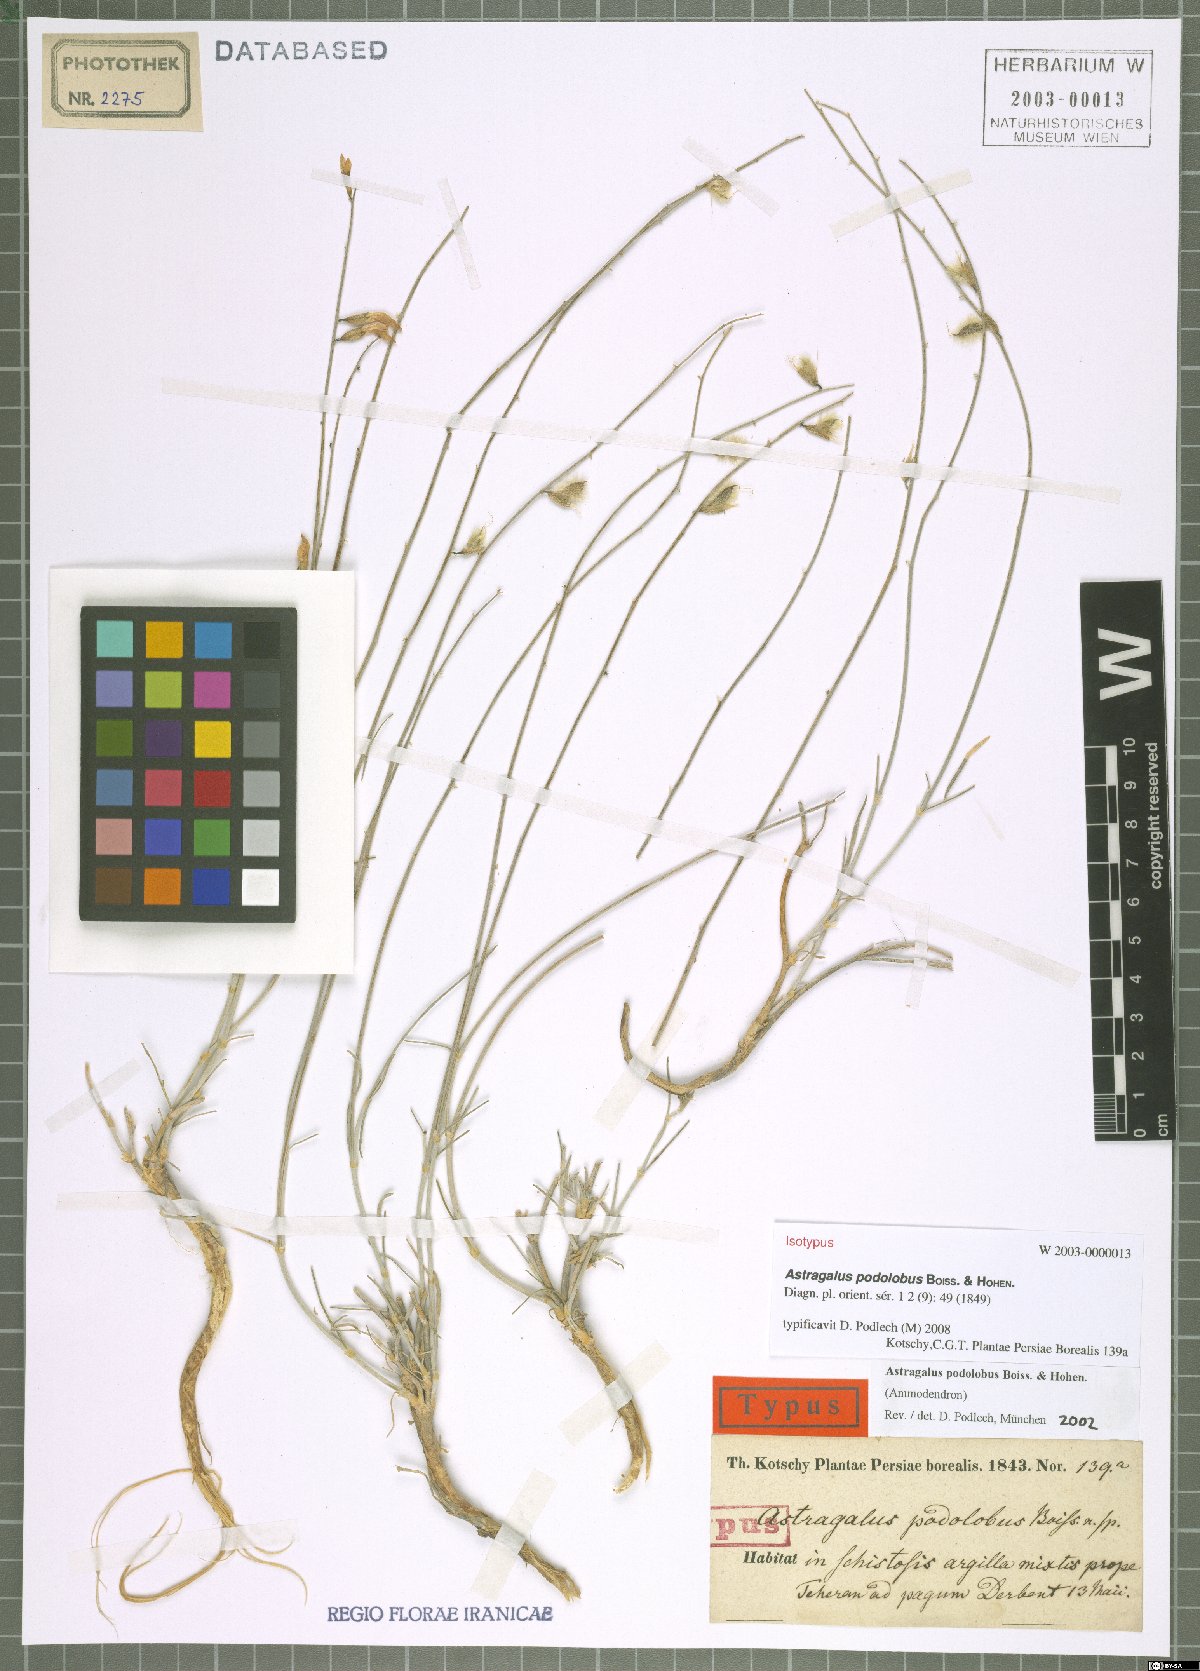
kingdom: Plantae
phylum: Tracheophyta
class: Magnoliopsida
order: Fabales
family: Fabaceae
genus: Astragalus
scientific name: Astragalus podolobus
